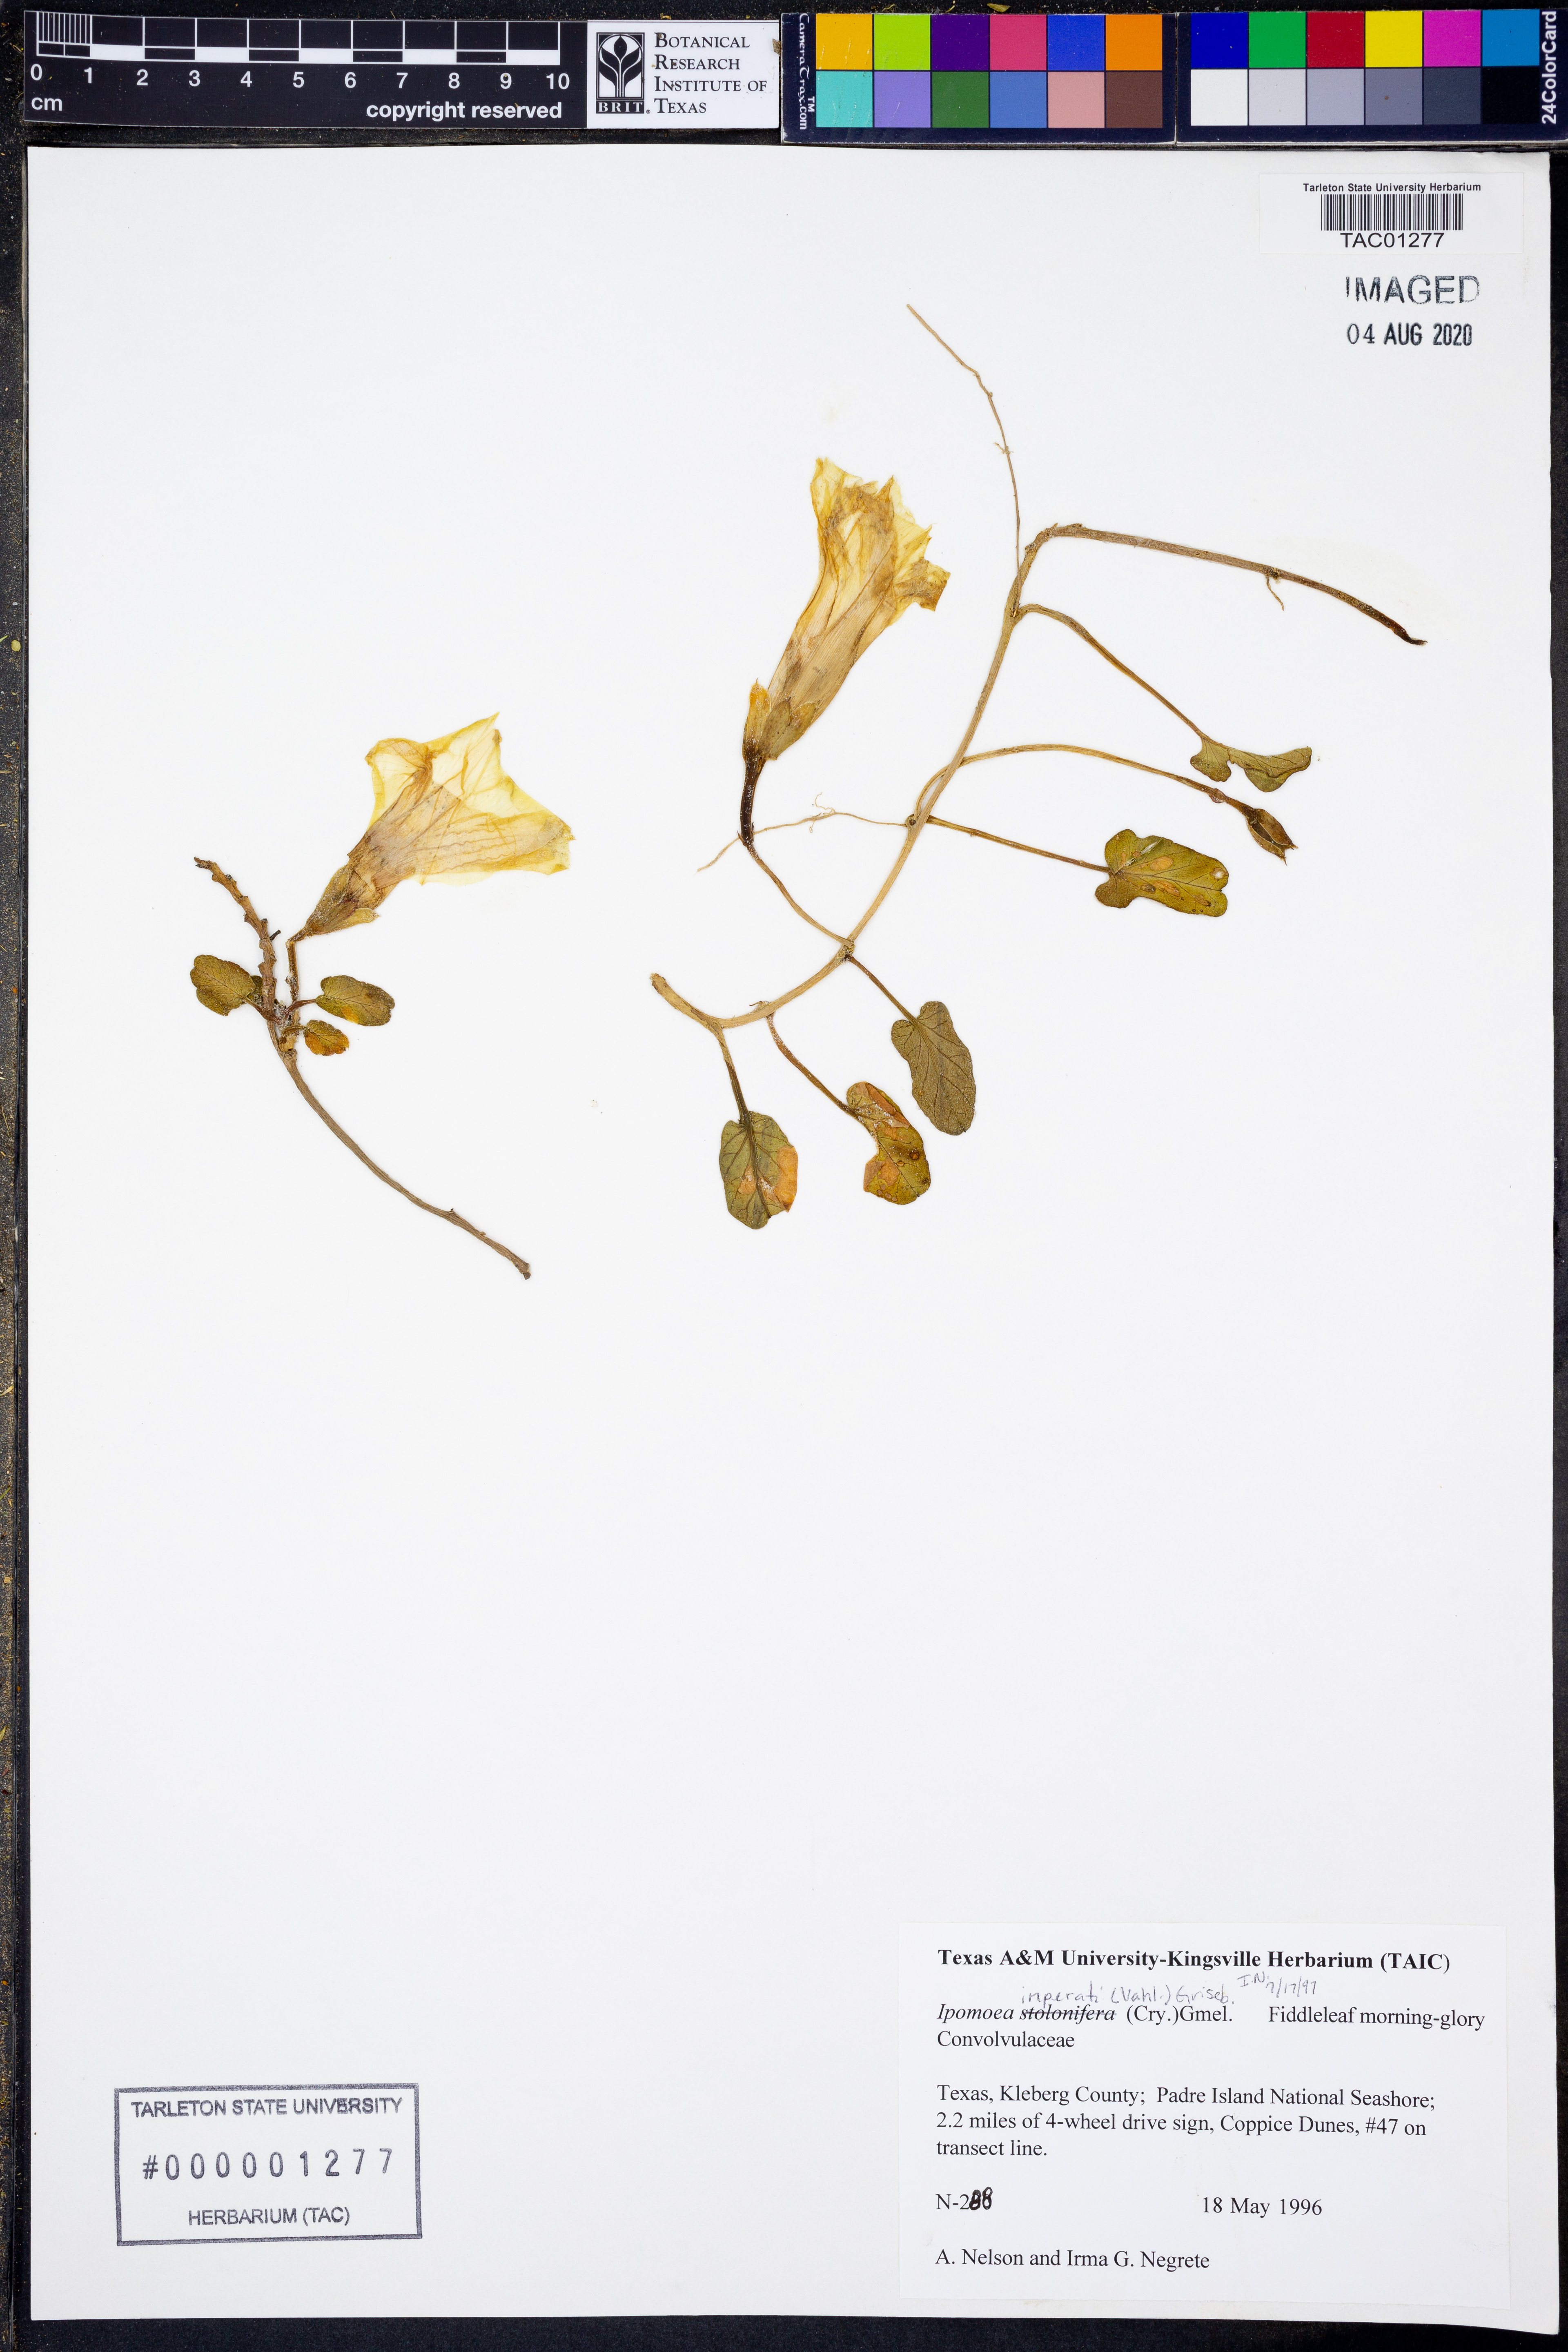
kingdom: Plantae
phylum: Tracheophyta
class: Magnoliopsida
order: Solanales
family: Convolvulaceae
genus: Ipomoea
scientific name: Ipomoea imperati
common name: Fiddle-leaf morning-glory
